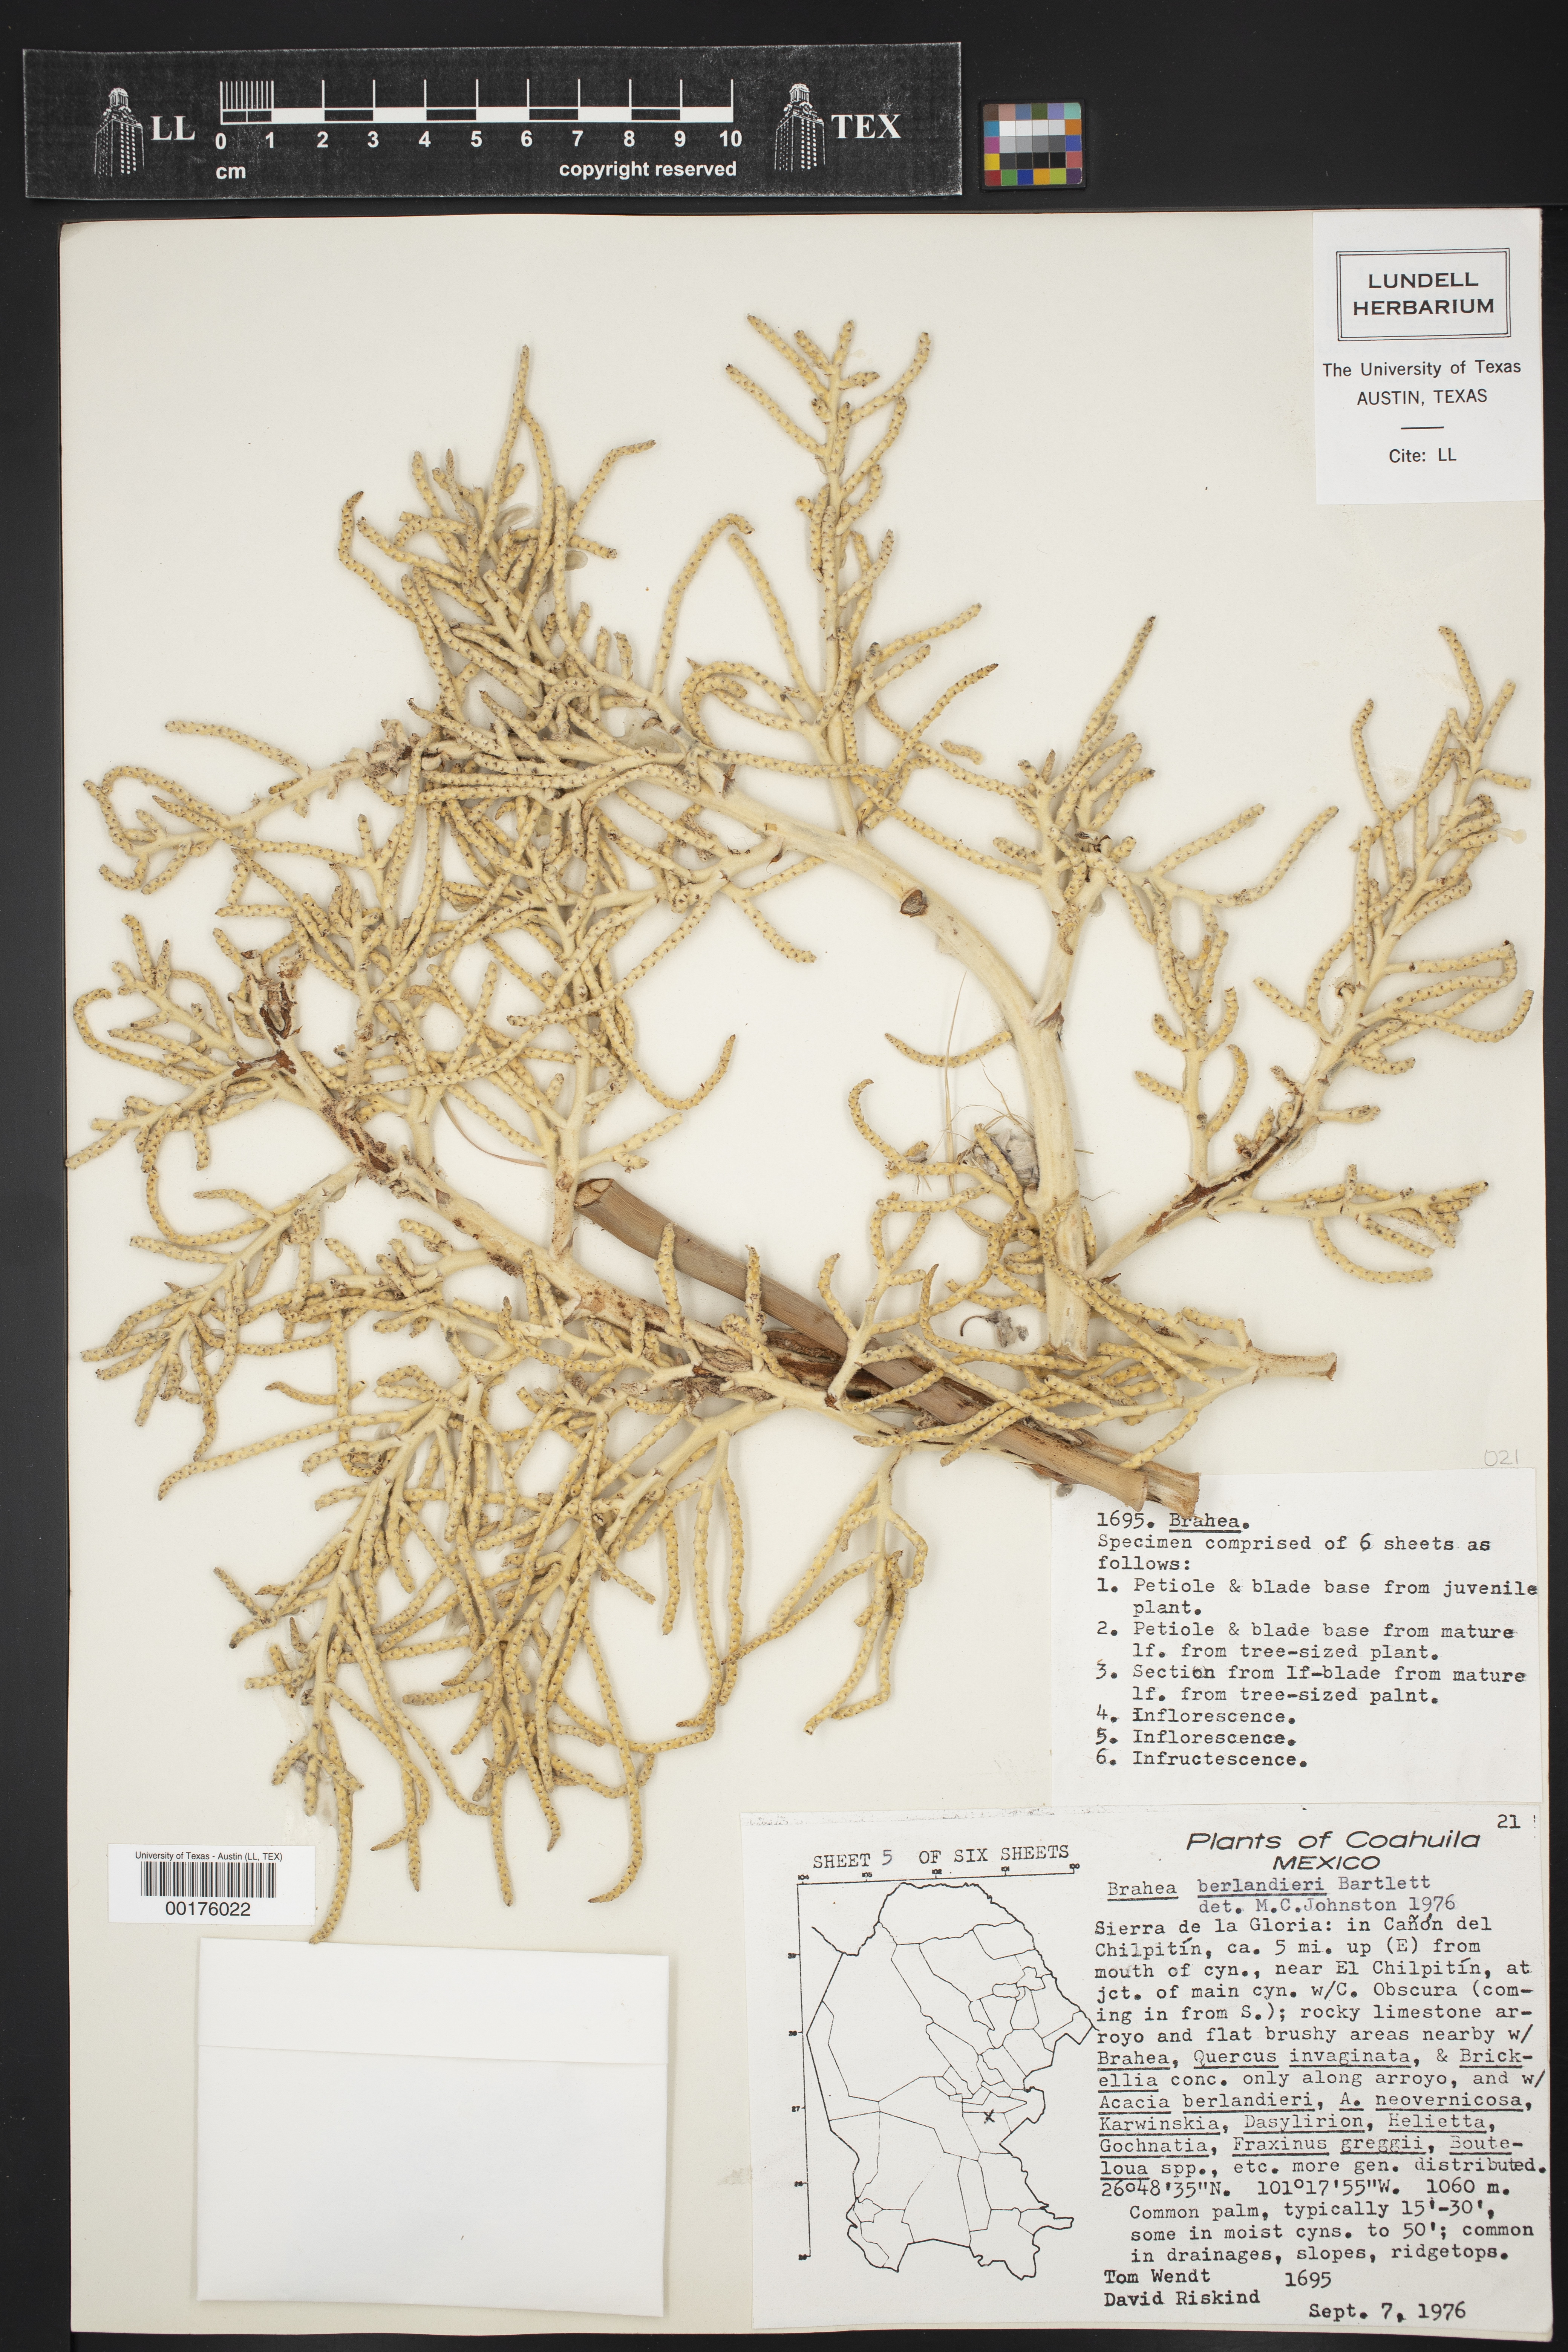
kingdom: Plantae
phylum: Tracheophyta
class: Liliopsida
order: Arecales
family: Arecaceae
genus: Brahea
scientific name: Brahea dulcis
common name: Apak palm
